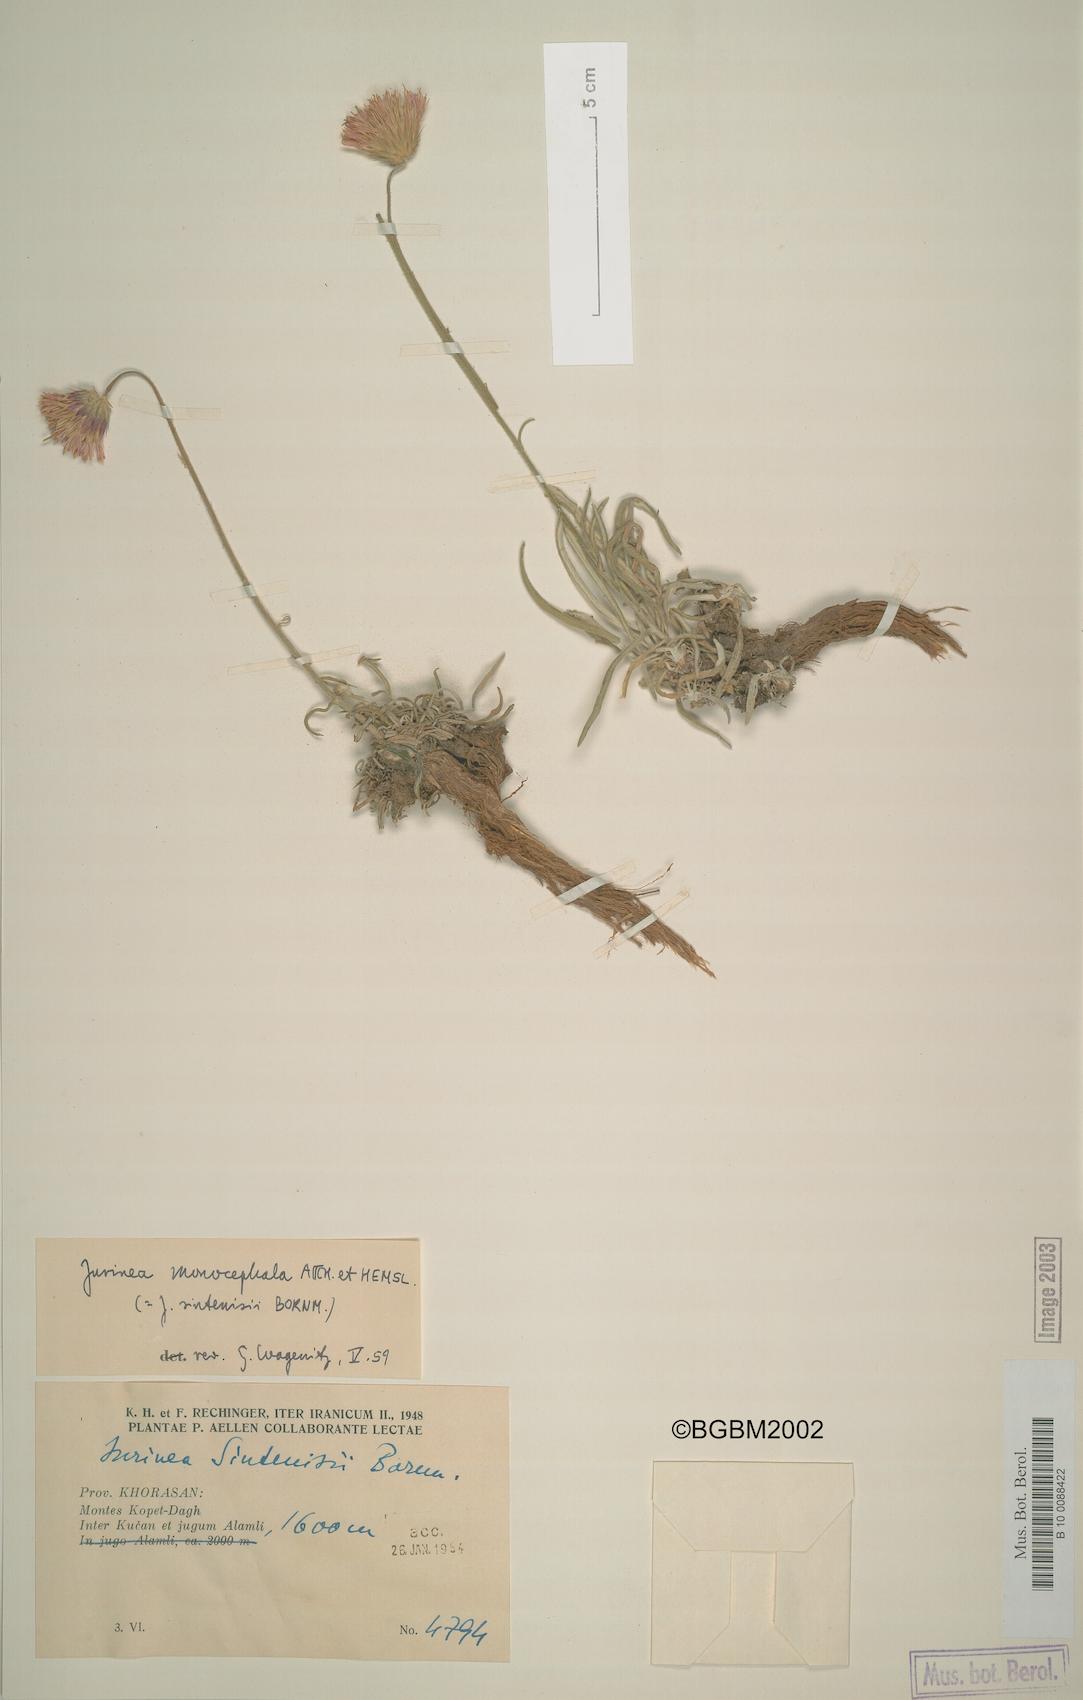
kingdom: Plantae
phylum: Tracheophyta
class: Magnoliopsida
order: Asterales
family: Asteraceae
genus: Jurinea
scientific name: Jurinea monocephala
